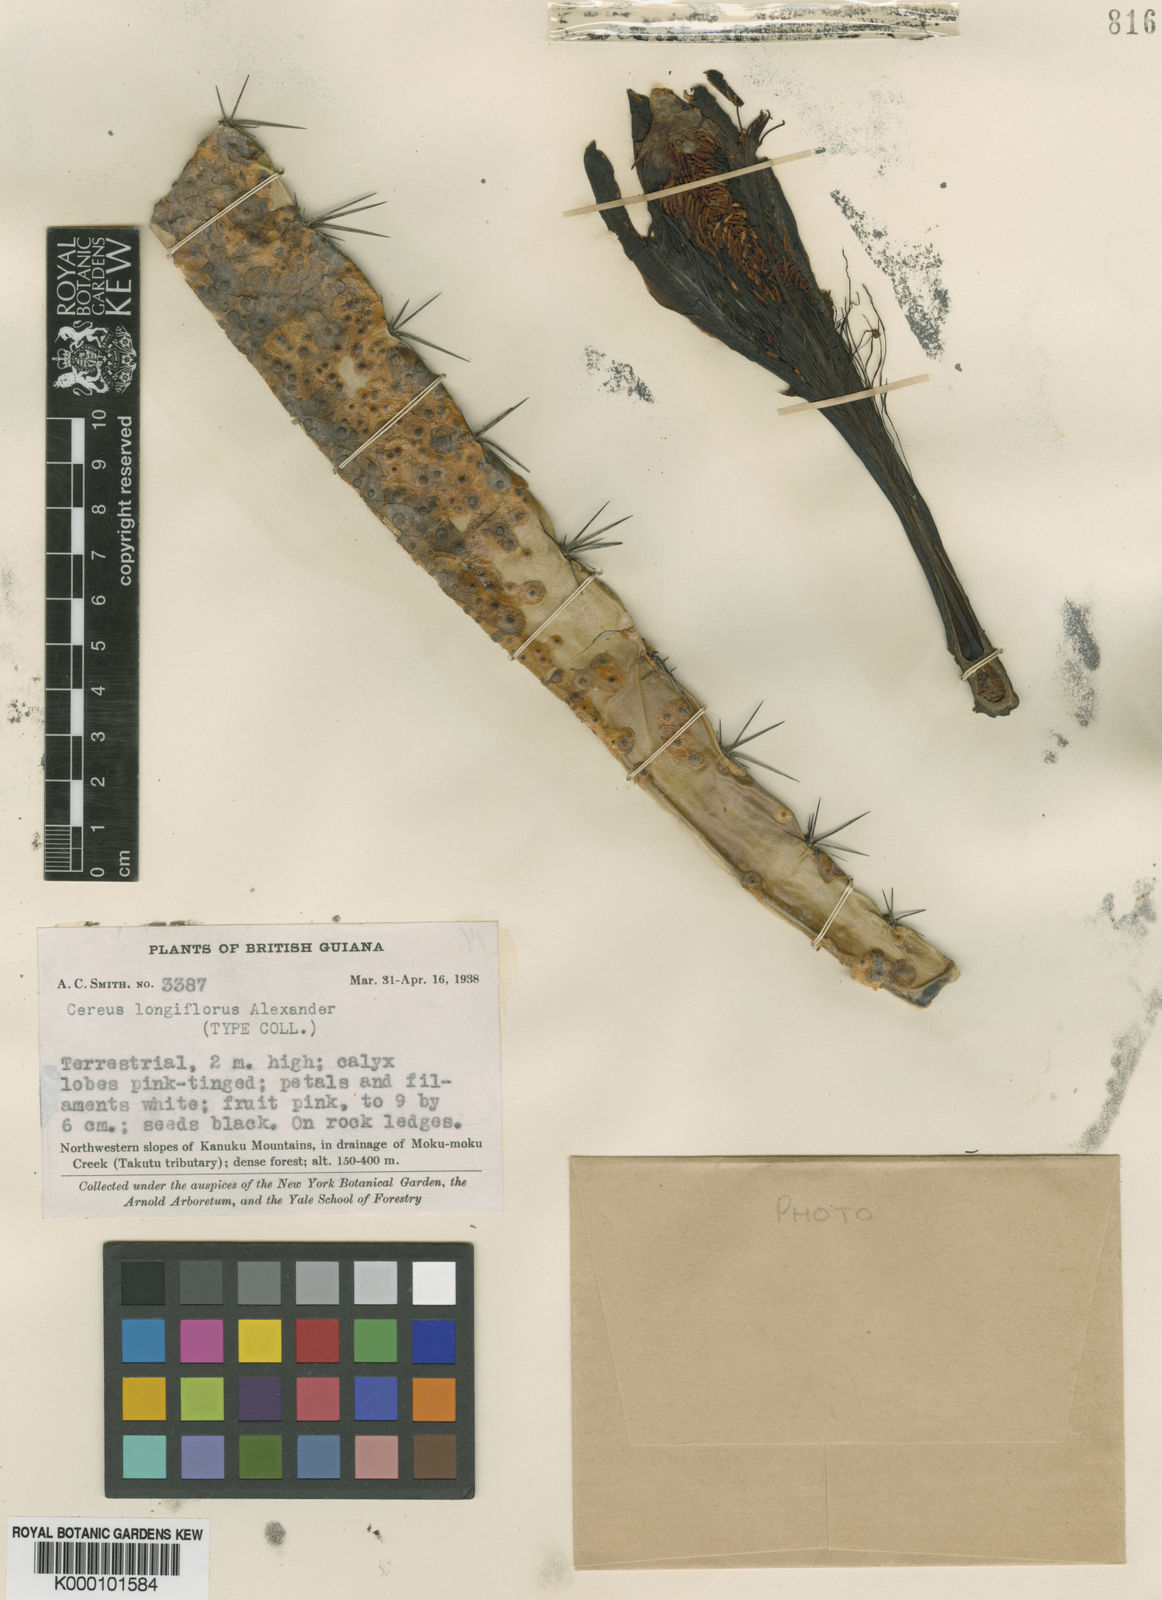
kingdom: Plantae
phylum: Tracheophyta
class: Magnoliopsida
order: Caryophyllales
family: Cactaceae
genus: Cereus
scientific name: Cereus hexagonus
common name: Lady of the night cactus
